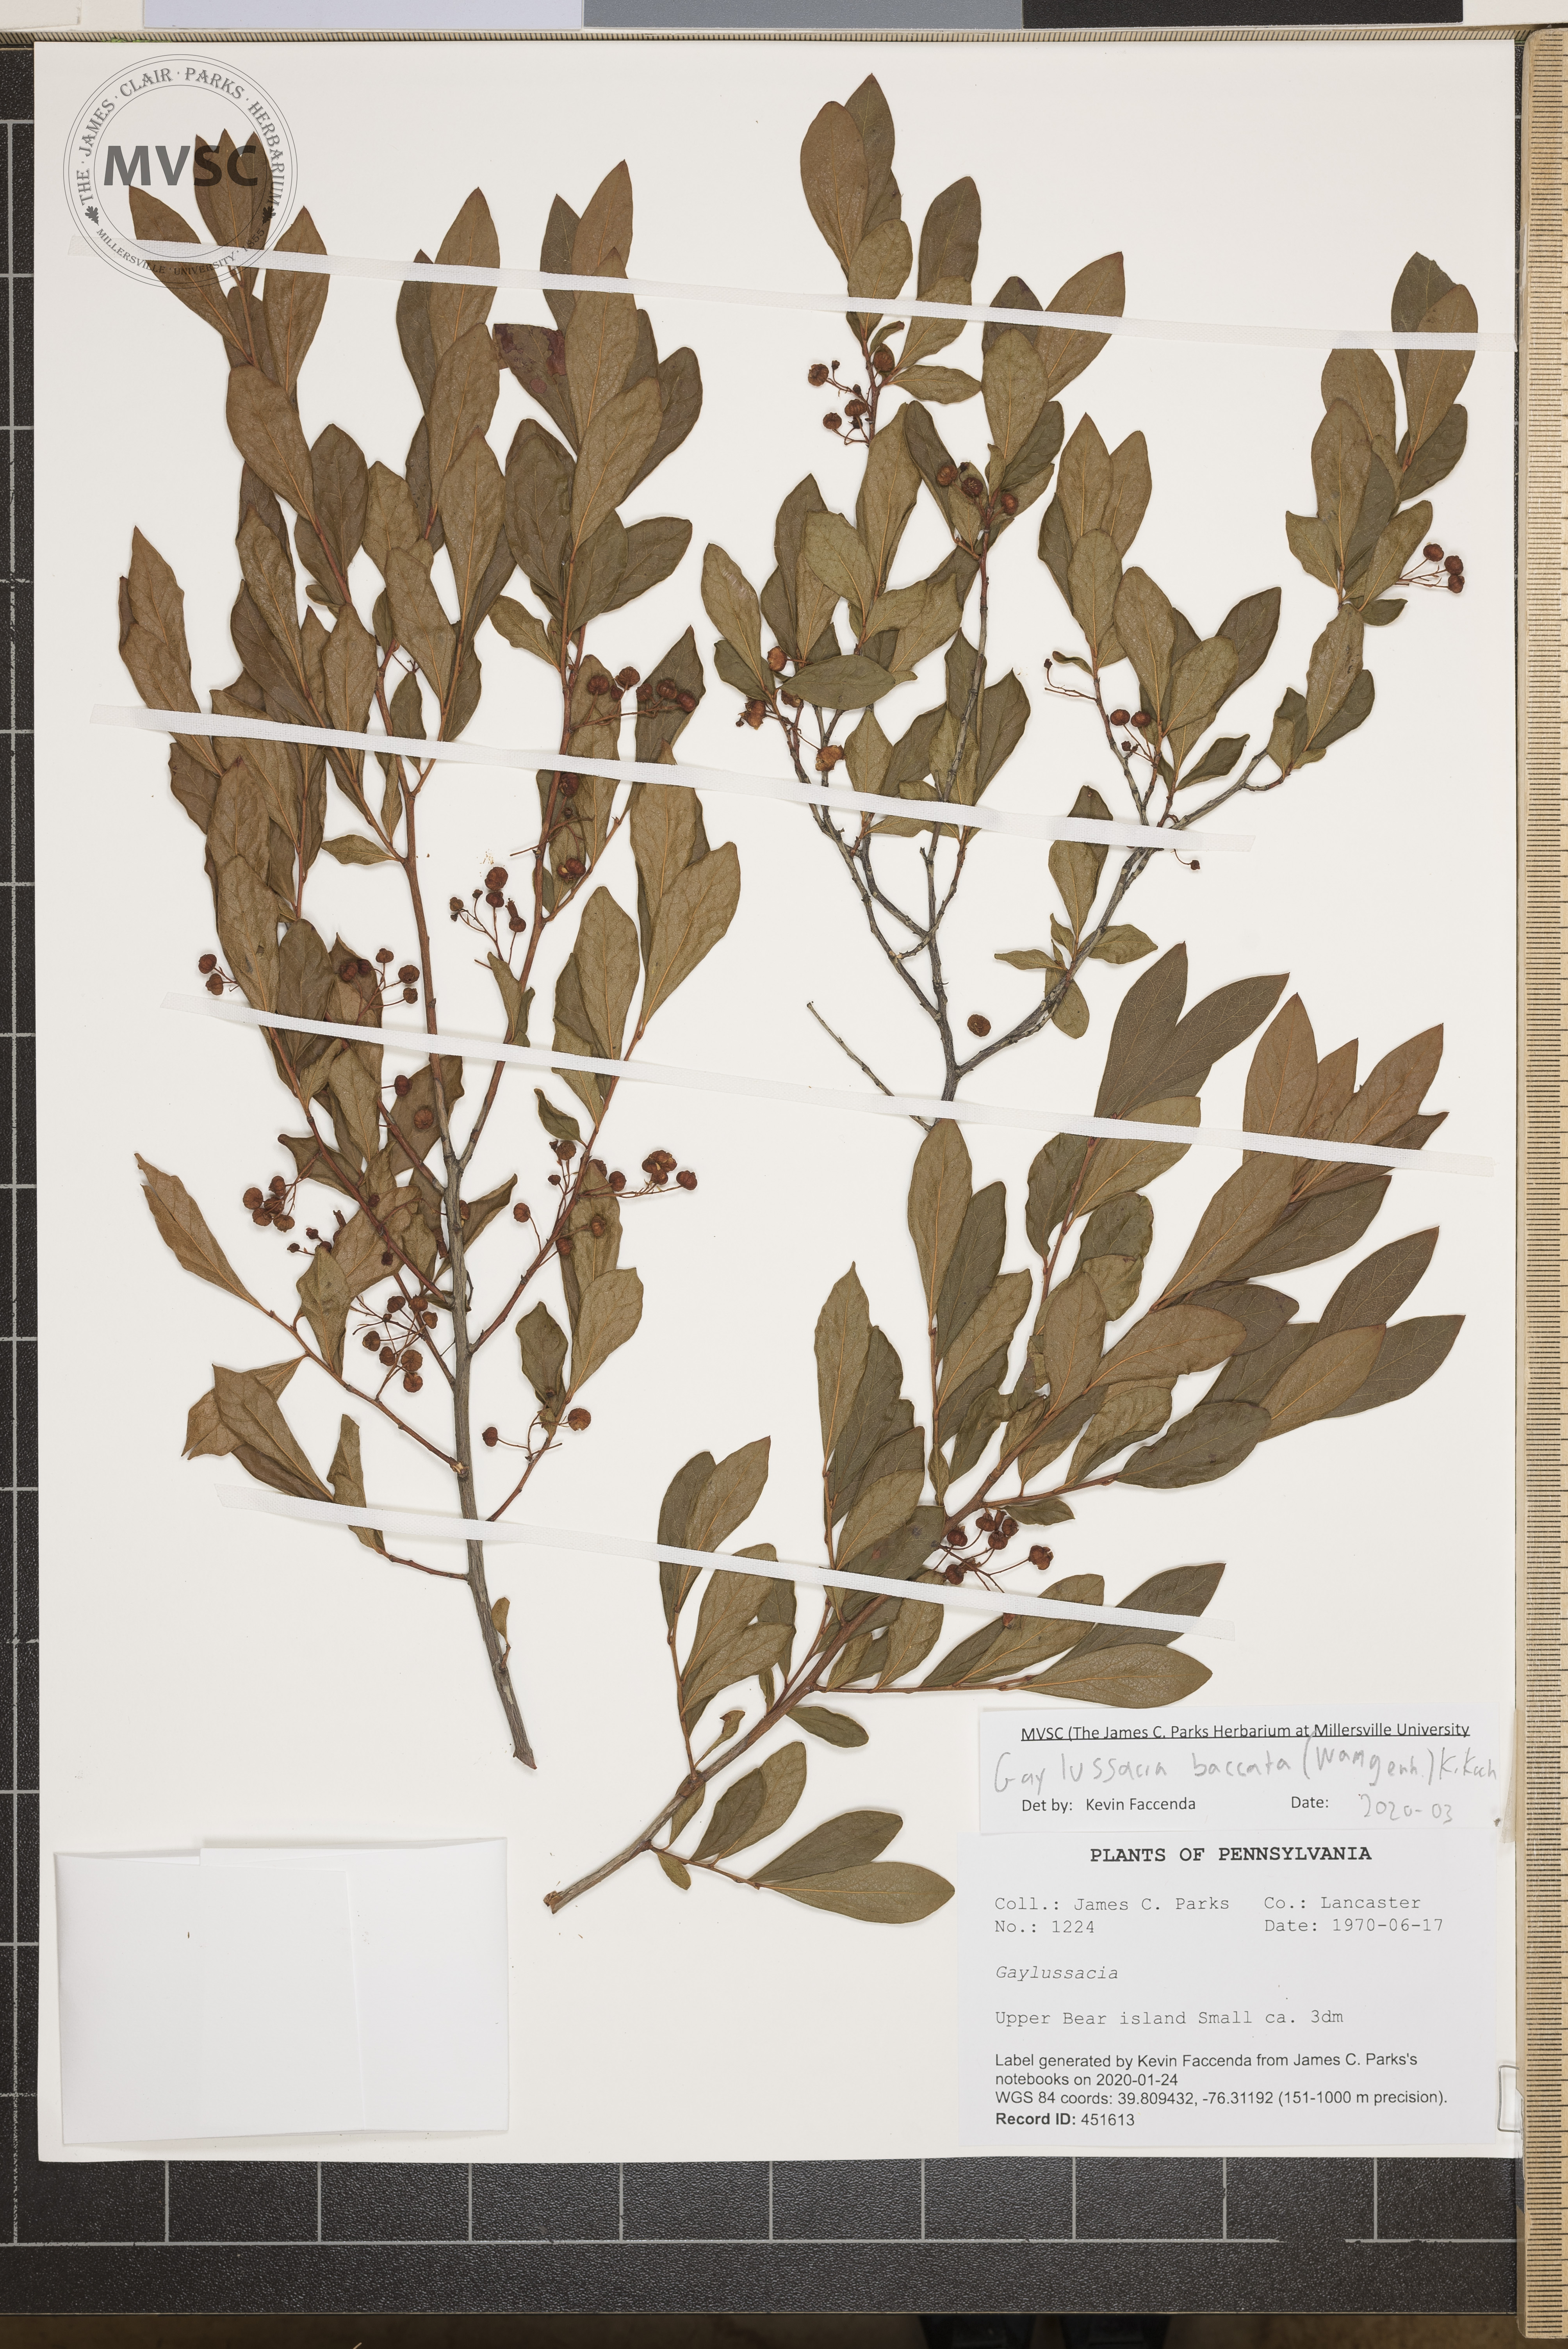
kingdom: Plantae
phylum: Tracheophyta
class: Magnoliopsida
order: Ericales
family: Ericaceae
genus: Gaylussacia
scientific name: Gaylussacia baccata
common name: Black huckleberry
